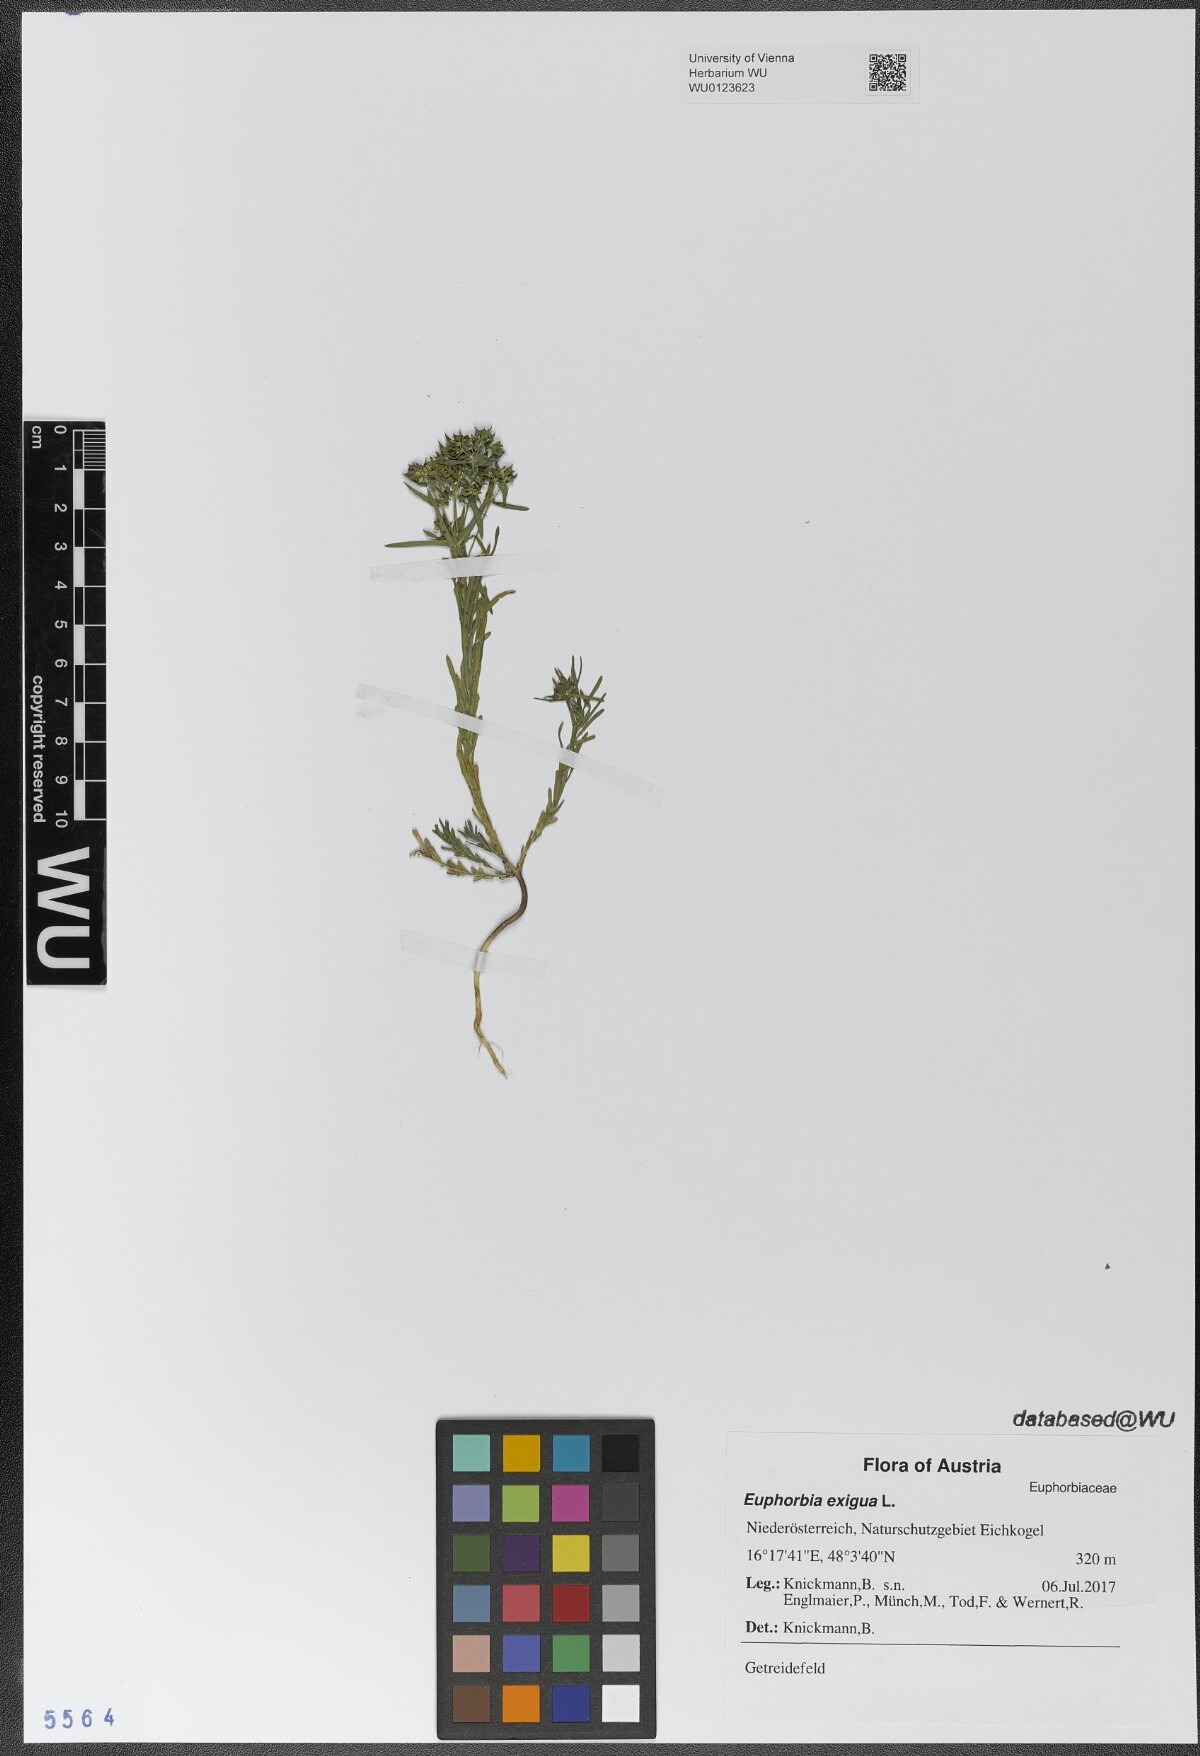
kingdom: Plantae
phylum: Tracheophyta
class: Magnoliopsida
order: Malpighiales
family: Euphorbiaceae
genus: Euphorbia
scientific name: Euphorbia exigua
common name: Dwarf spurge
